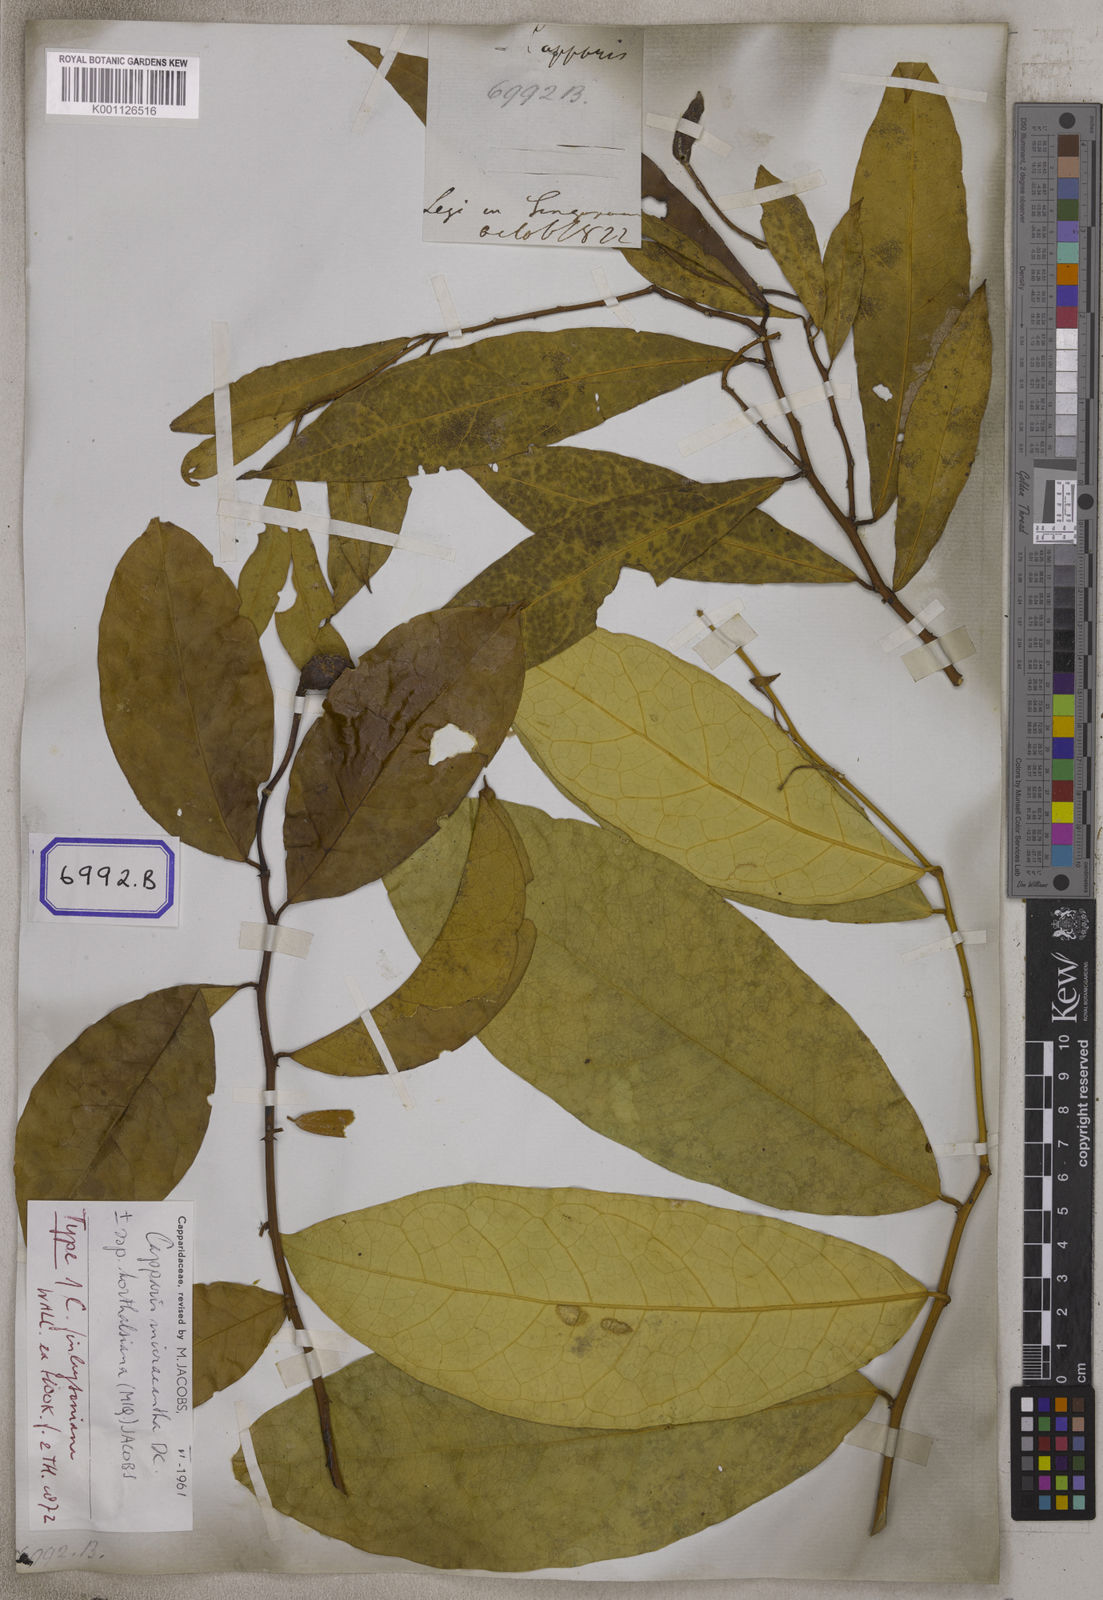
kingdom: Plantae
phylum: Tracheophyta
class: Magnoliopsida
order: Brassicales
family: Capparaceae
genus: Capparis
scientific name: Capparis
